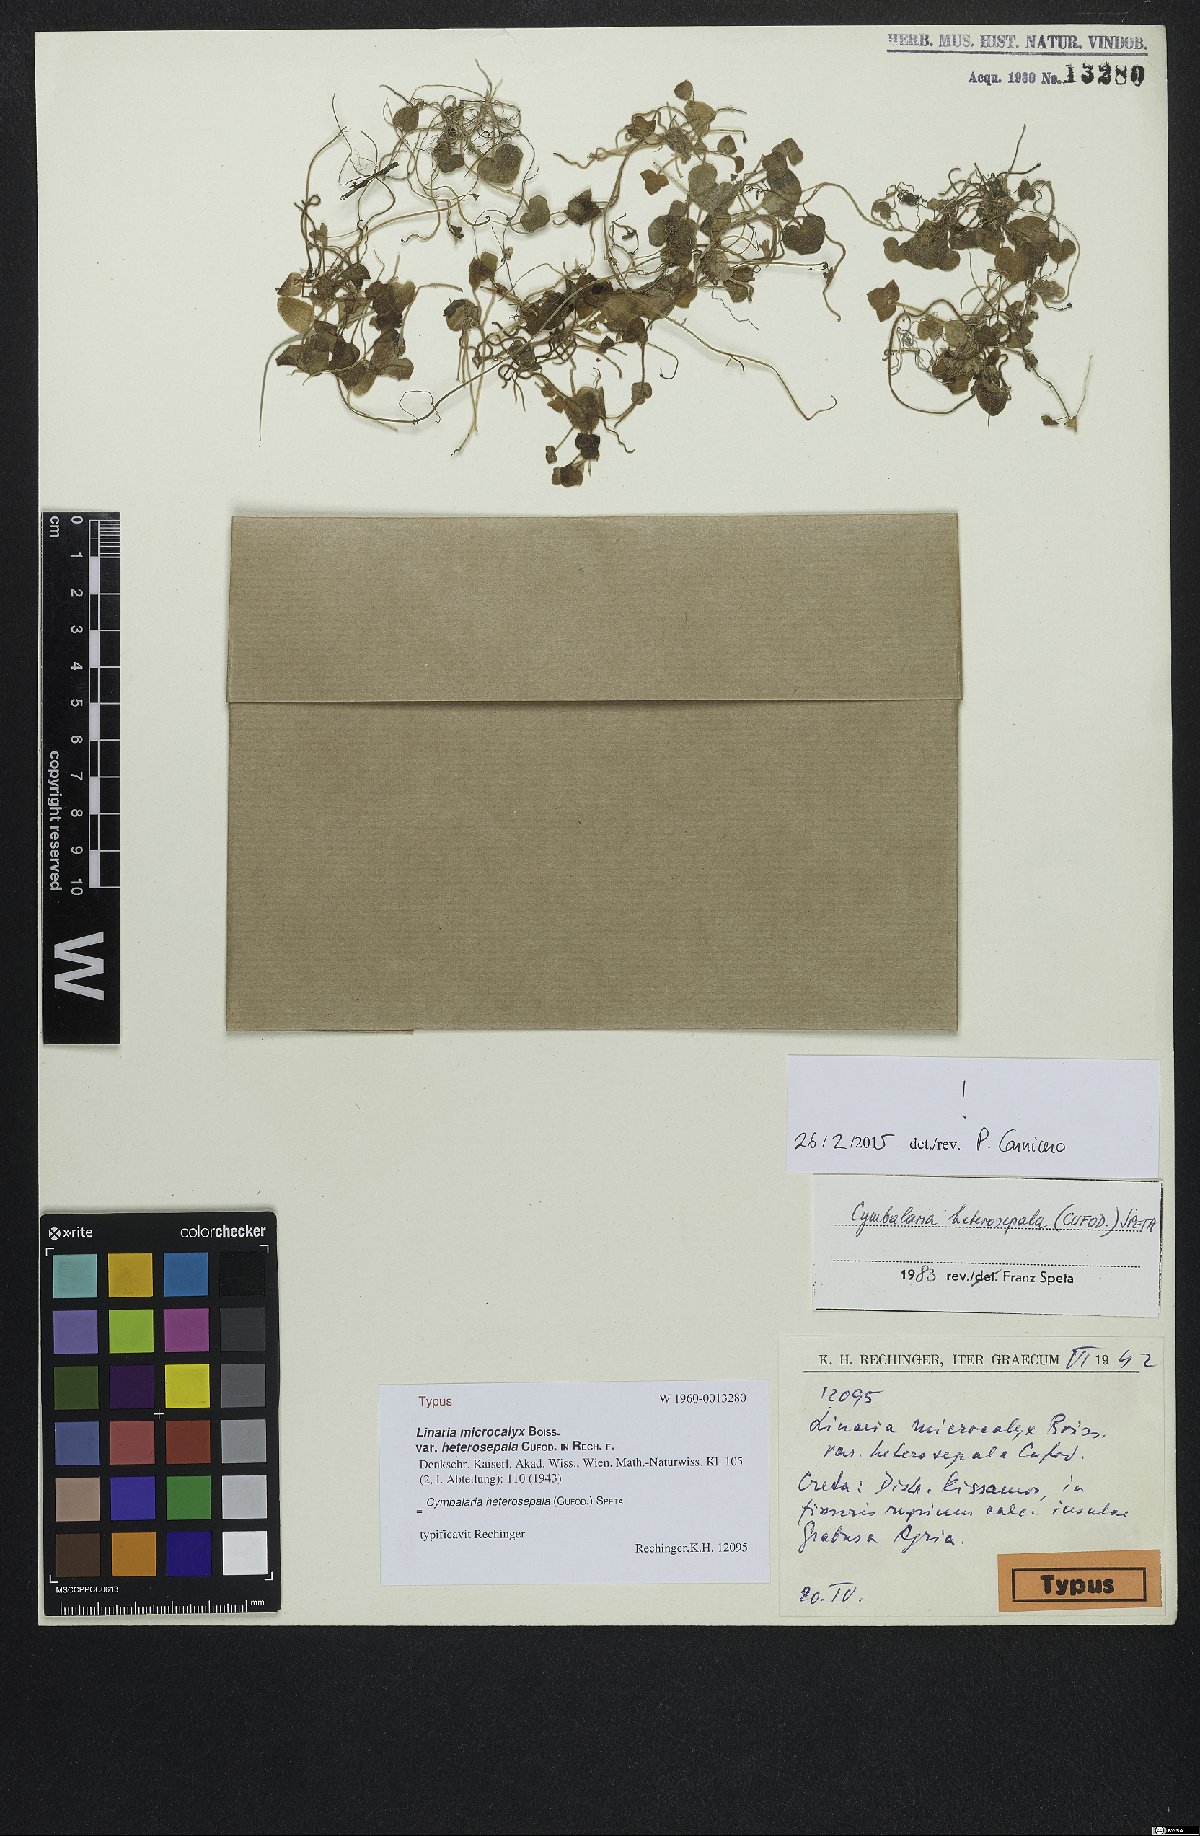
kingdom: Plantae
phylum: Tracheophyta
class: Magnoliopsida
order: Lamiales
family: Scrophulariaceae
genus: Cymbalaria
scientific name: Cymbalaria
